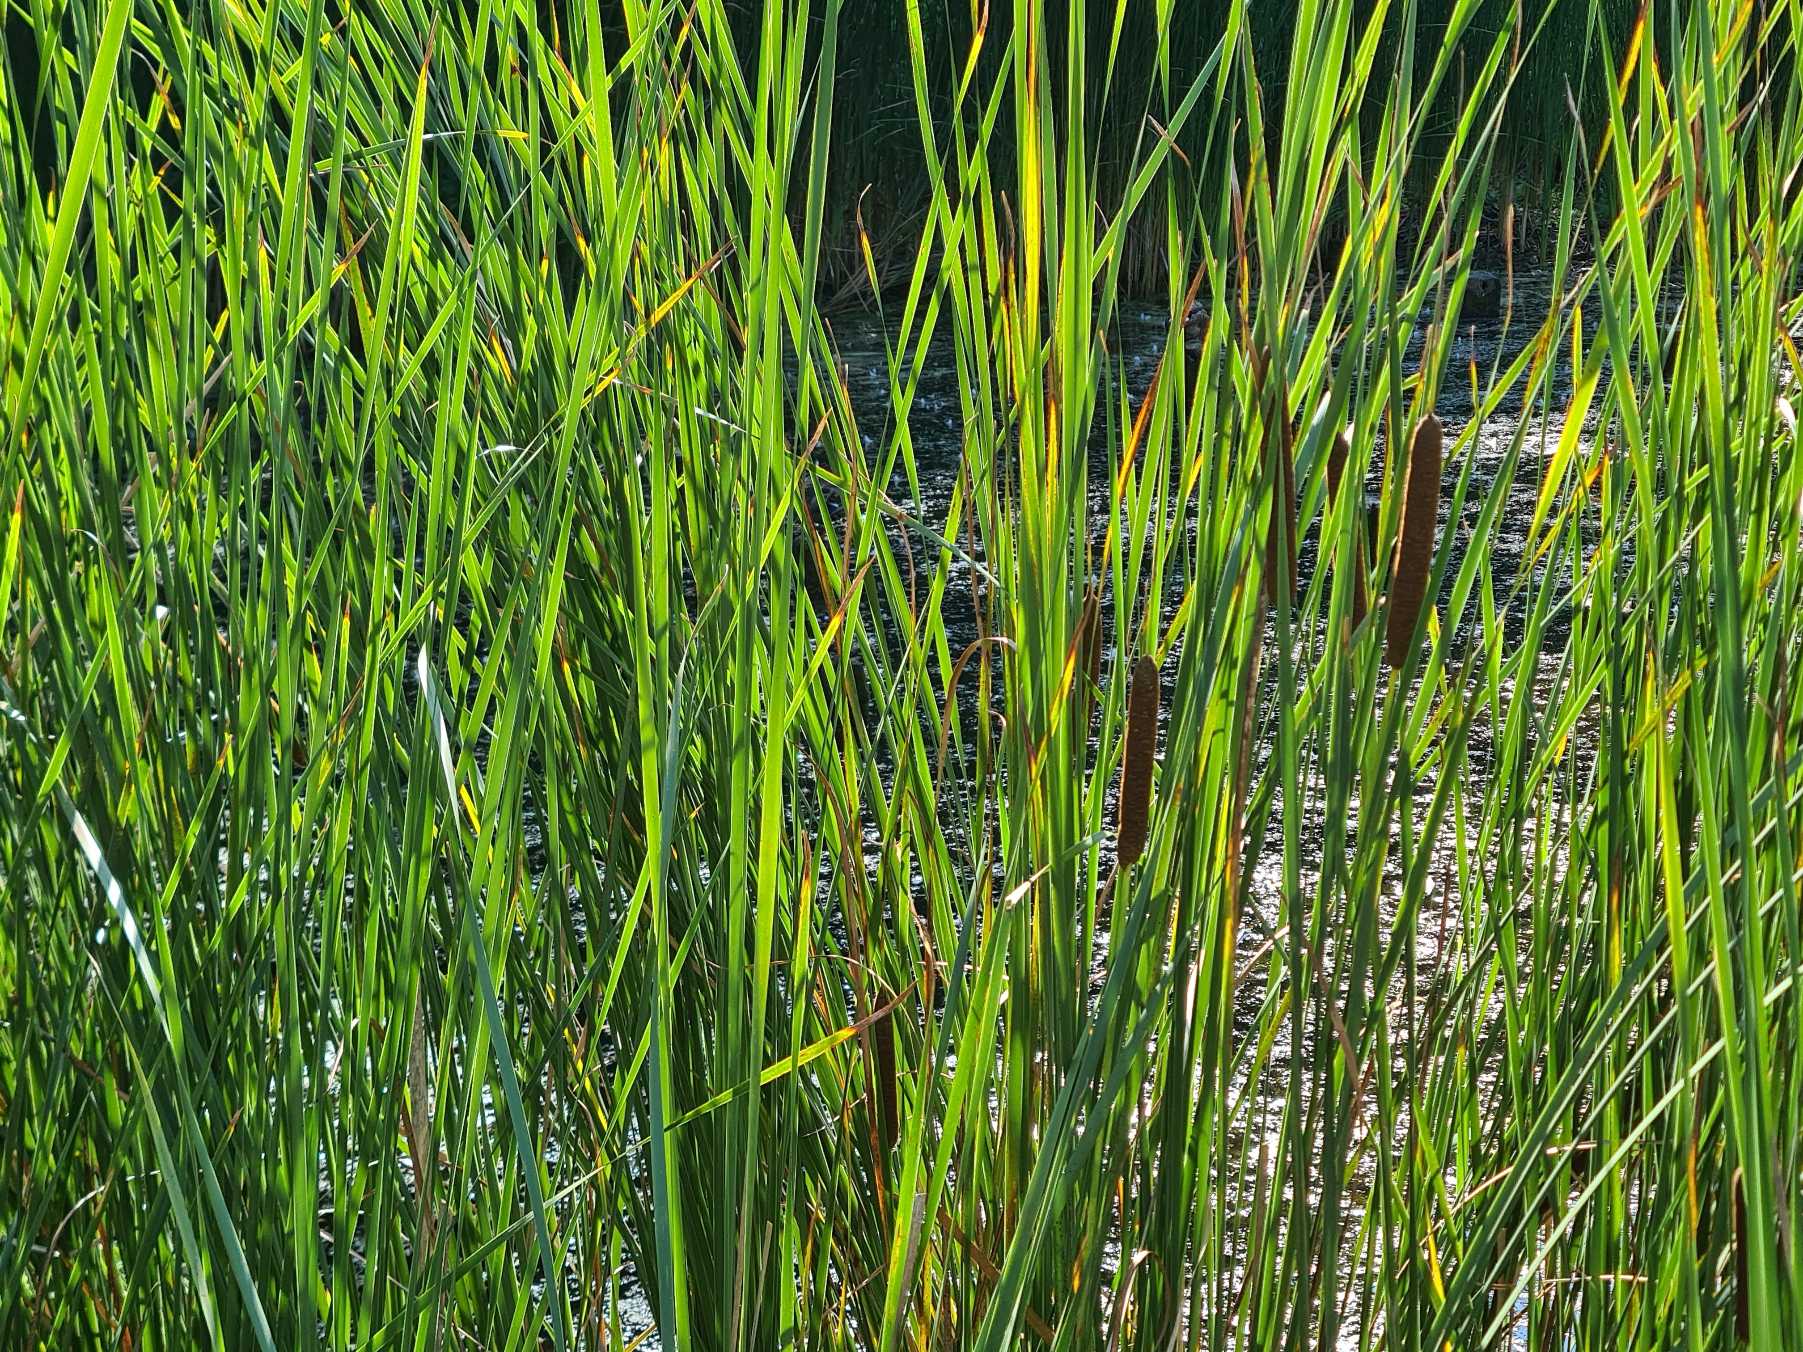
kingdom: Plantae
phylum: Tracheophyta
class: Liliopsida
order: Poales
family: Typhaceae
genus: Typha
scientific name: Typha angustifolia
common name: Smalbladet dunhammer
